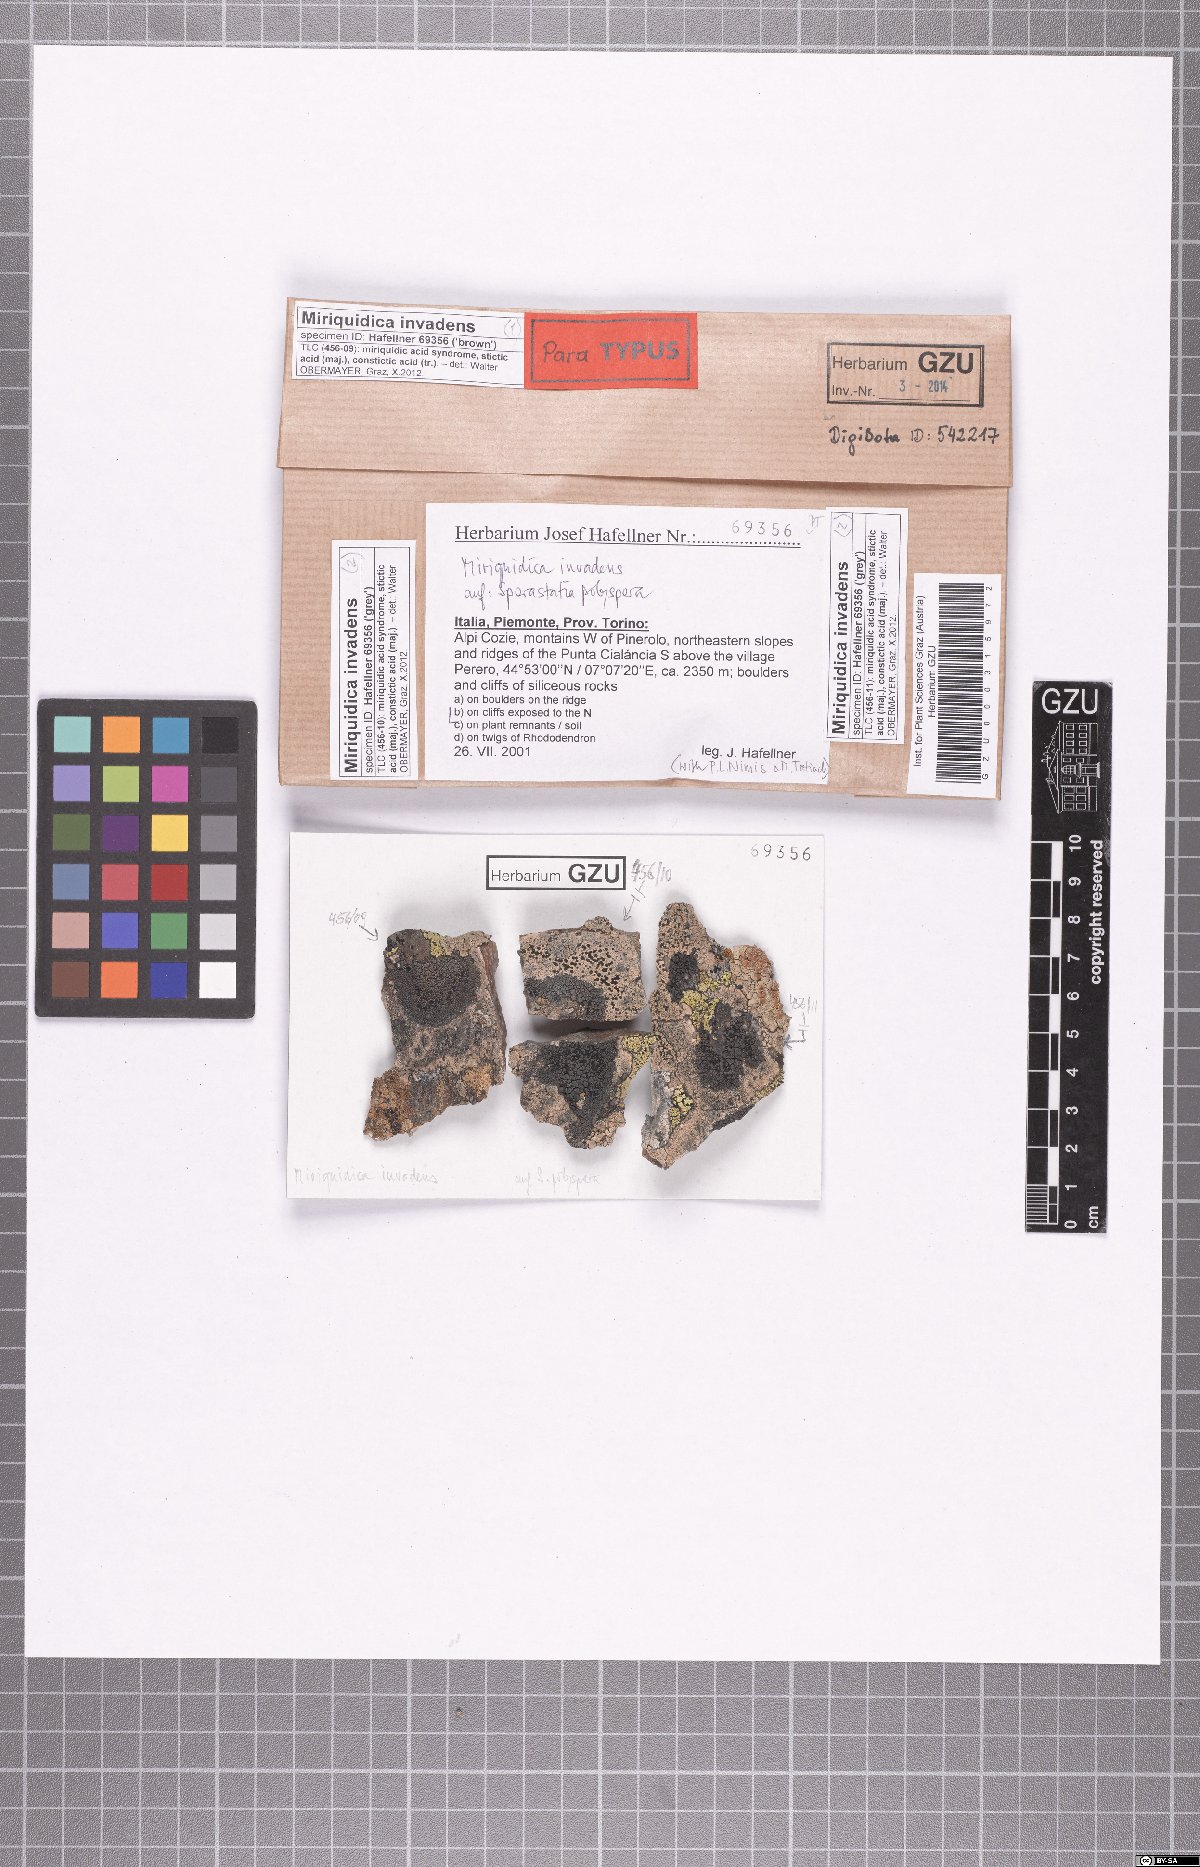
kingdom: Fungi
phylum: Ascomycota
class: Lecanoromycetes
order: Lecanorales
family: Lecanoraceae
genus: Miriquidica
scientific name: Miriquidica invadens
